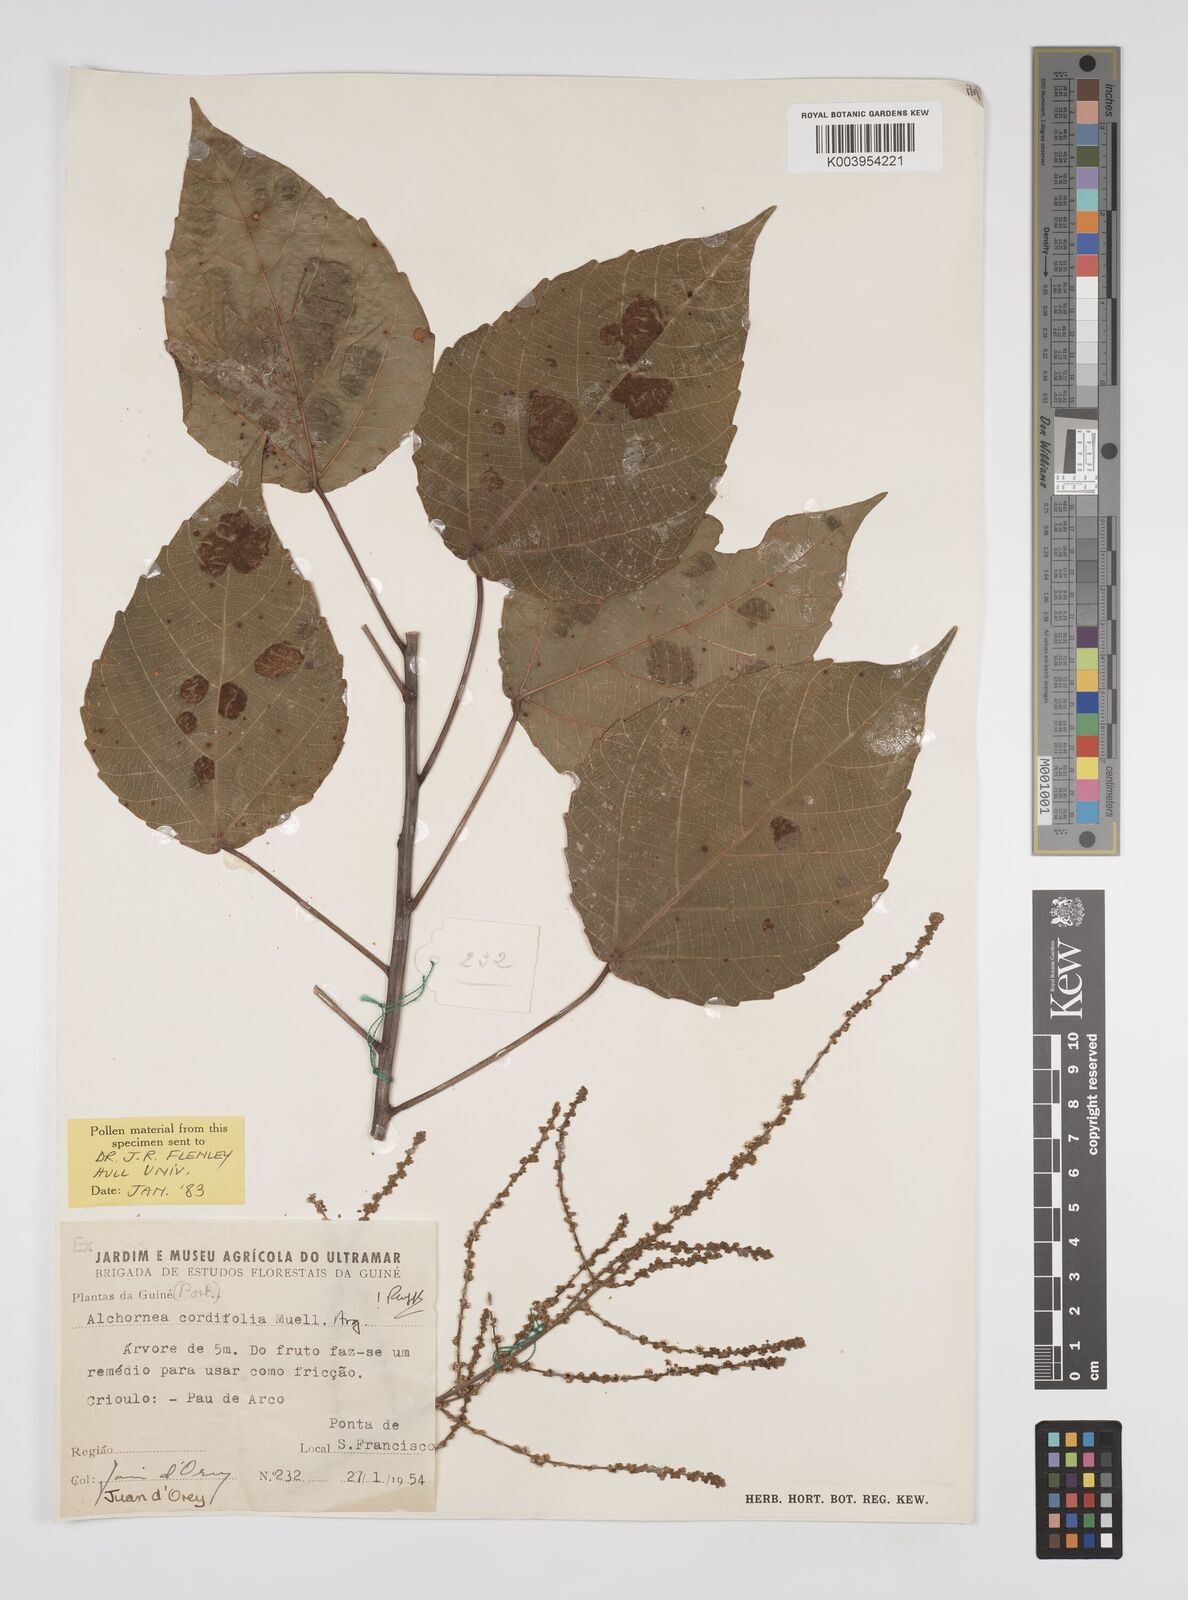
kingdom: Plantae
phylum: Tracheophyta
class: Magnoliopsida
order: Malpighiales
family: Euphorbiaceae
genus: Alchornea
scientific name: Alchornea cordifolia
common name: Christmasbush
